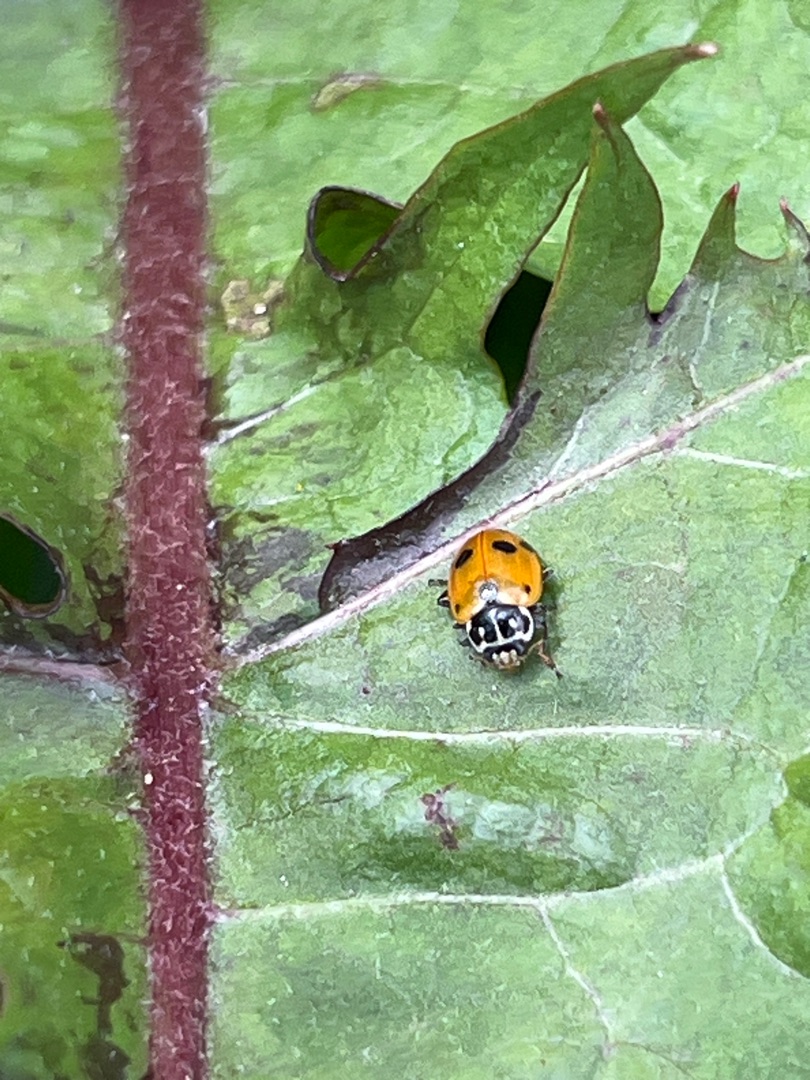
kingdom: Animalia
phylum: Arthropoda
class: Insecta
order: Coleoptera
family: Coccinellidae
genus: Hippodamia
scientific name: Hippodamia variegata
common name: Adonis' mariehøne
